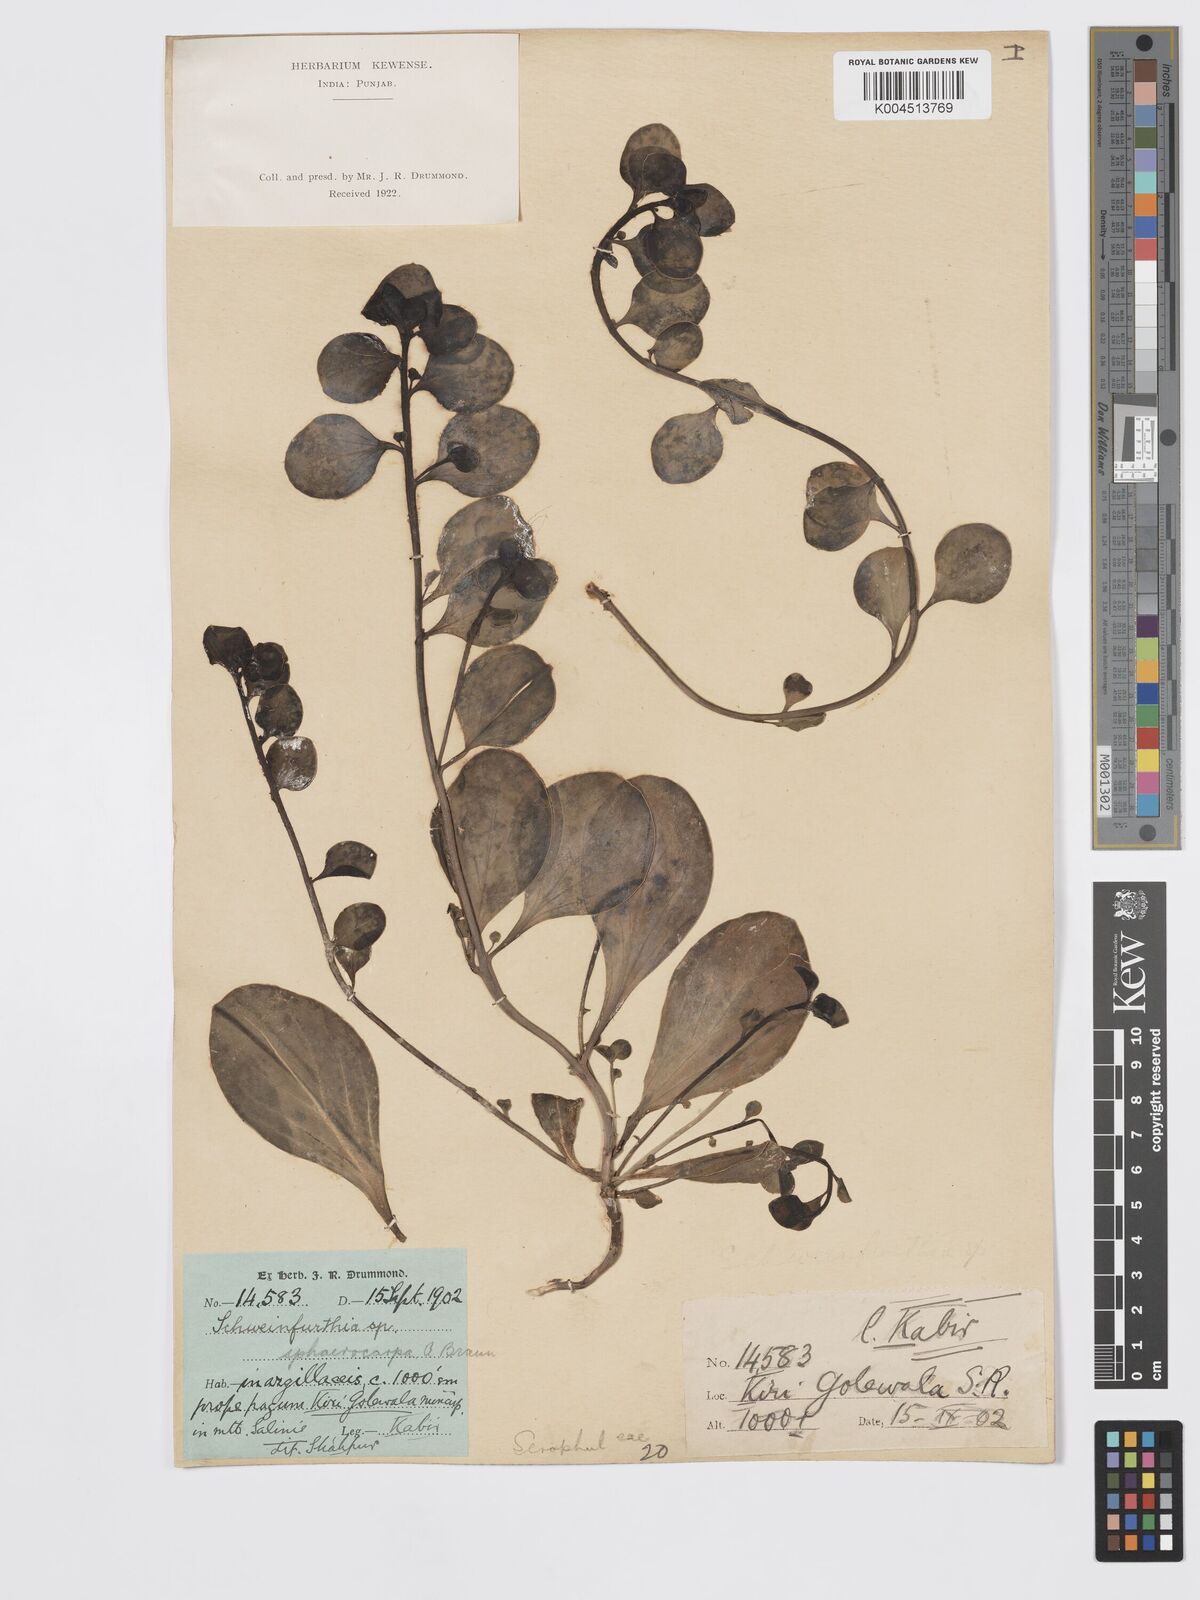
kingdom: Plantae
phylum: Tracheophyta
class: Magnoliopsida
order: Lamiales
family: Plantaginaceae
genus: Schweinfurthia
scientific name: Schweinfurthia papilionacea
